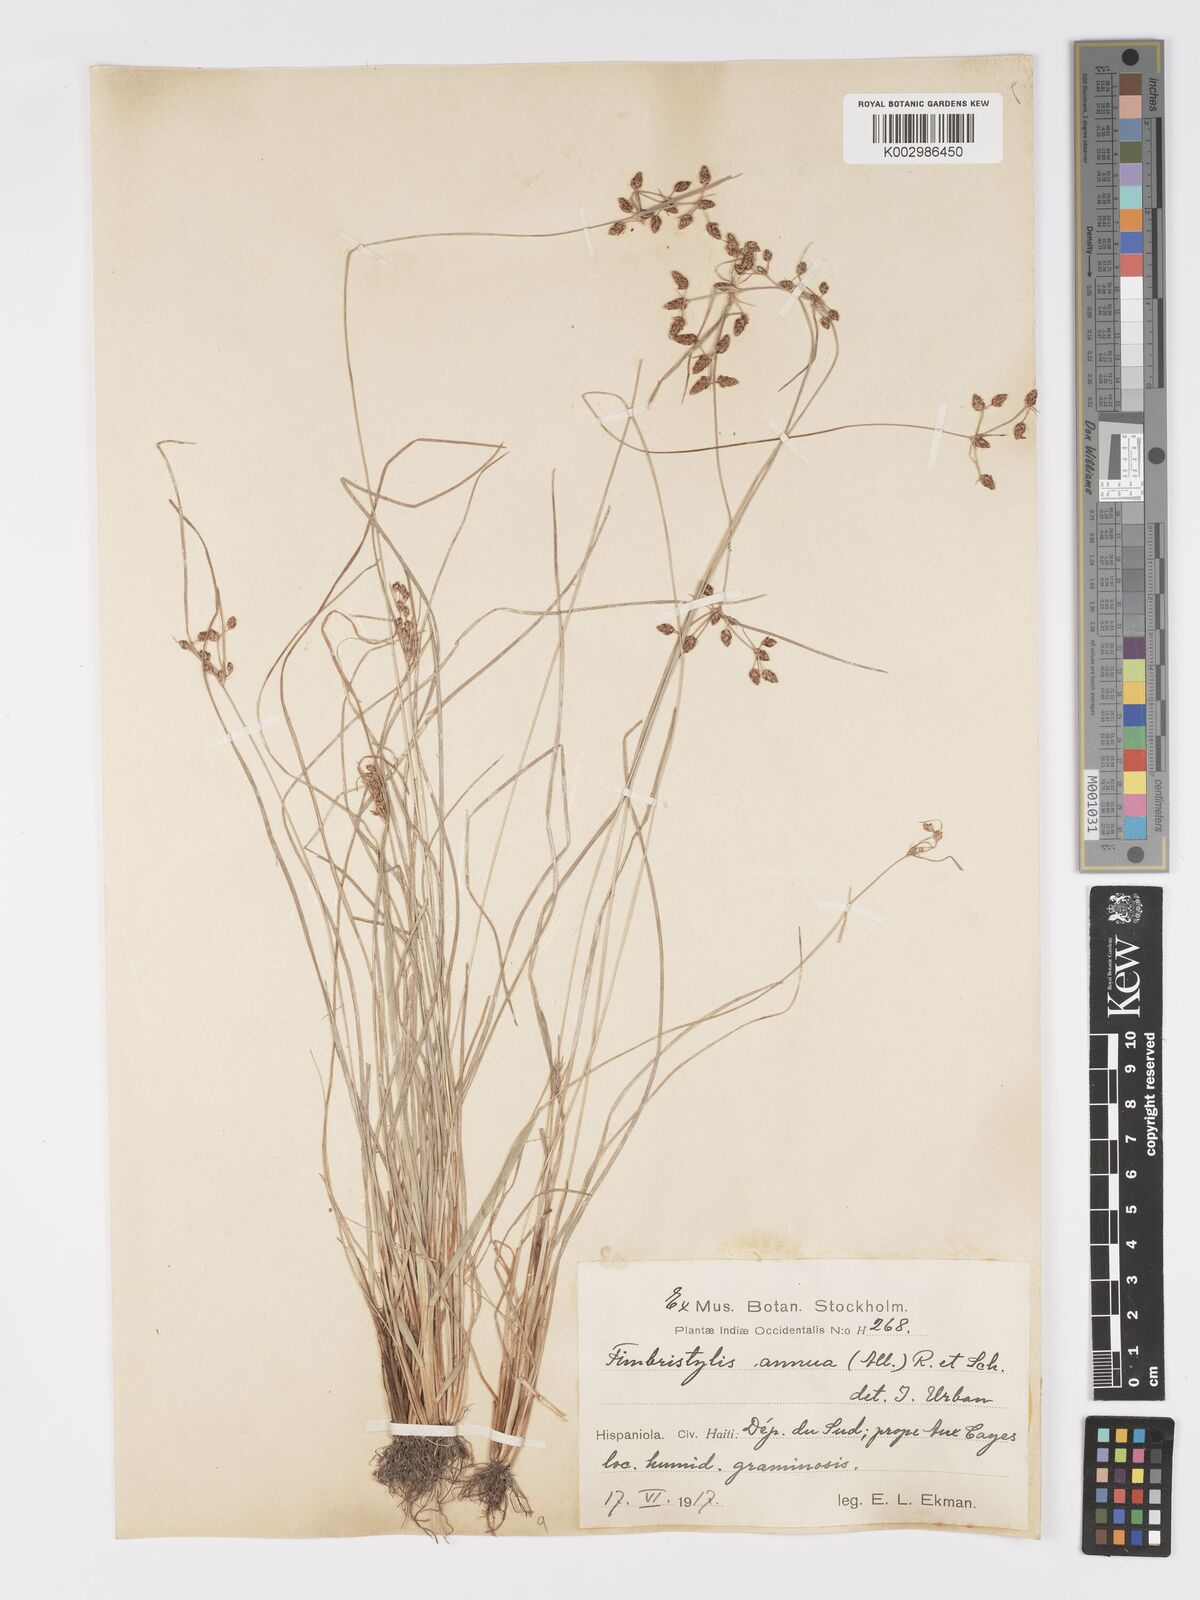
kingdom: Plantae
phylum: Tracheophyta
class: Liliopsida
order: Poales
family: Cyperaceae
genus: Fimbristylis
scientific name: Fimbristylis dichotoma
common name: Forked fimbry
